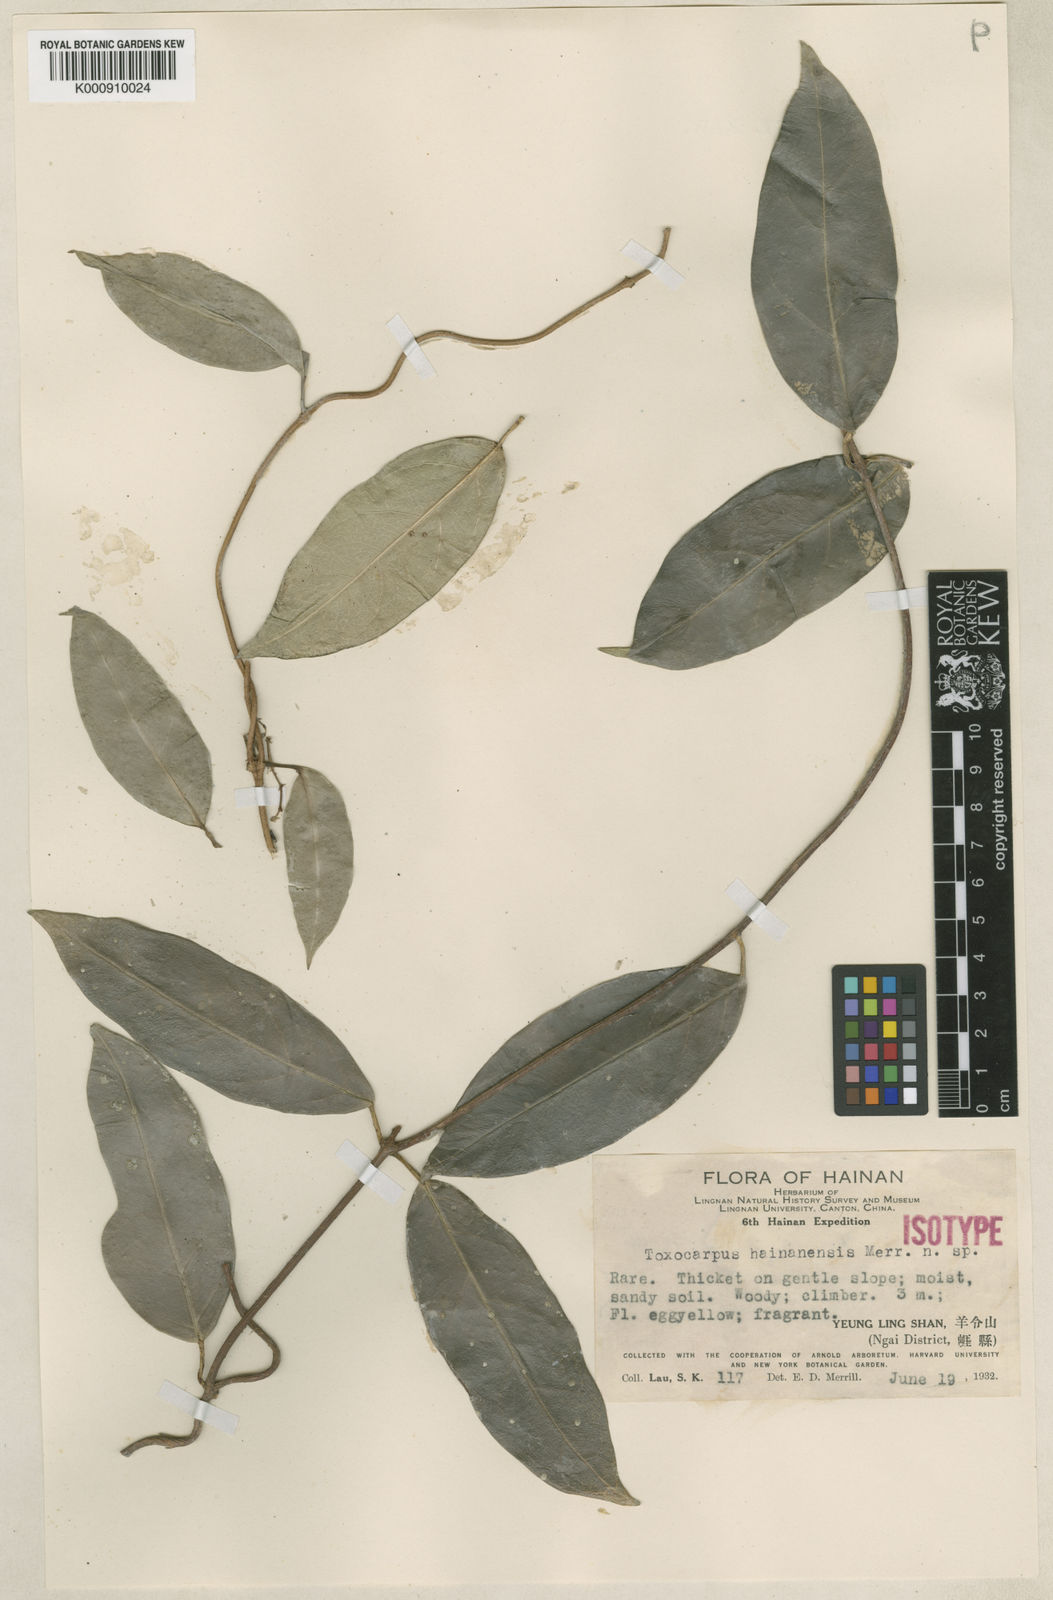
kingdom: Plantae
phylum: Tracheophyta
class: Magnoliopsida
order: Gentianales
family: Apocynaceae
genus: Toxocarpus
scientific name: Toxocarpus hainanensis
